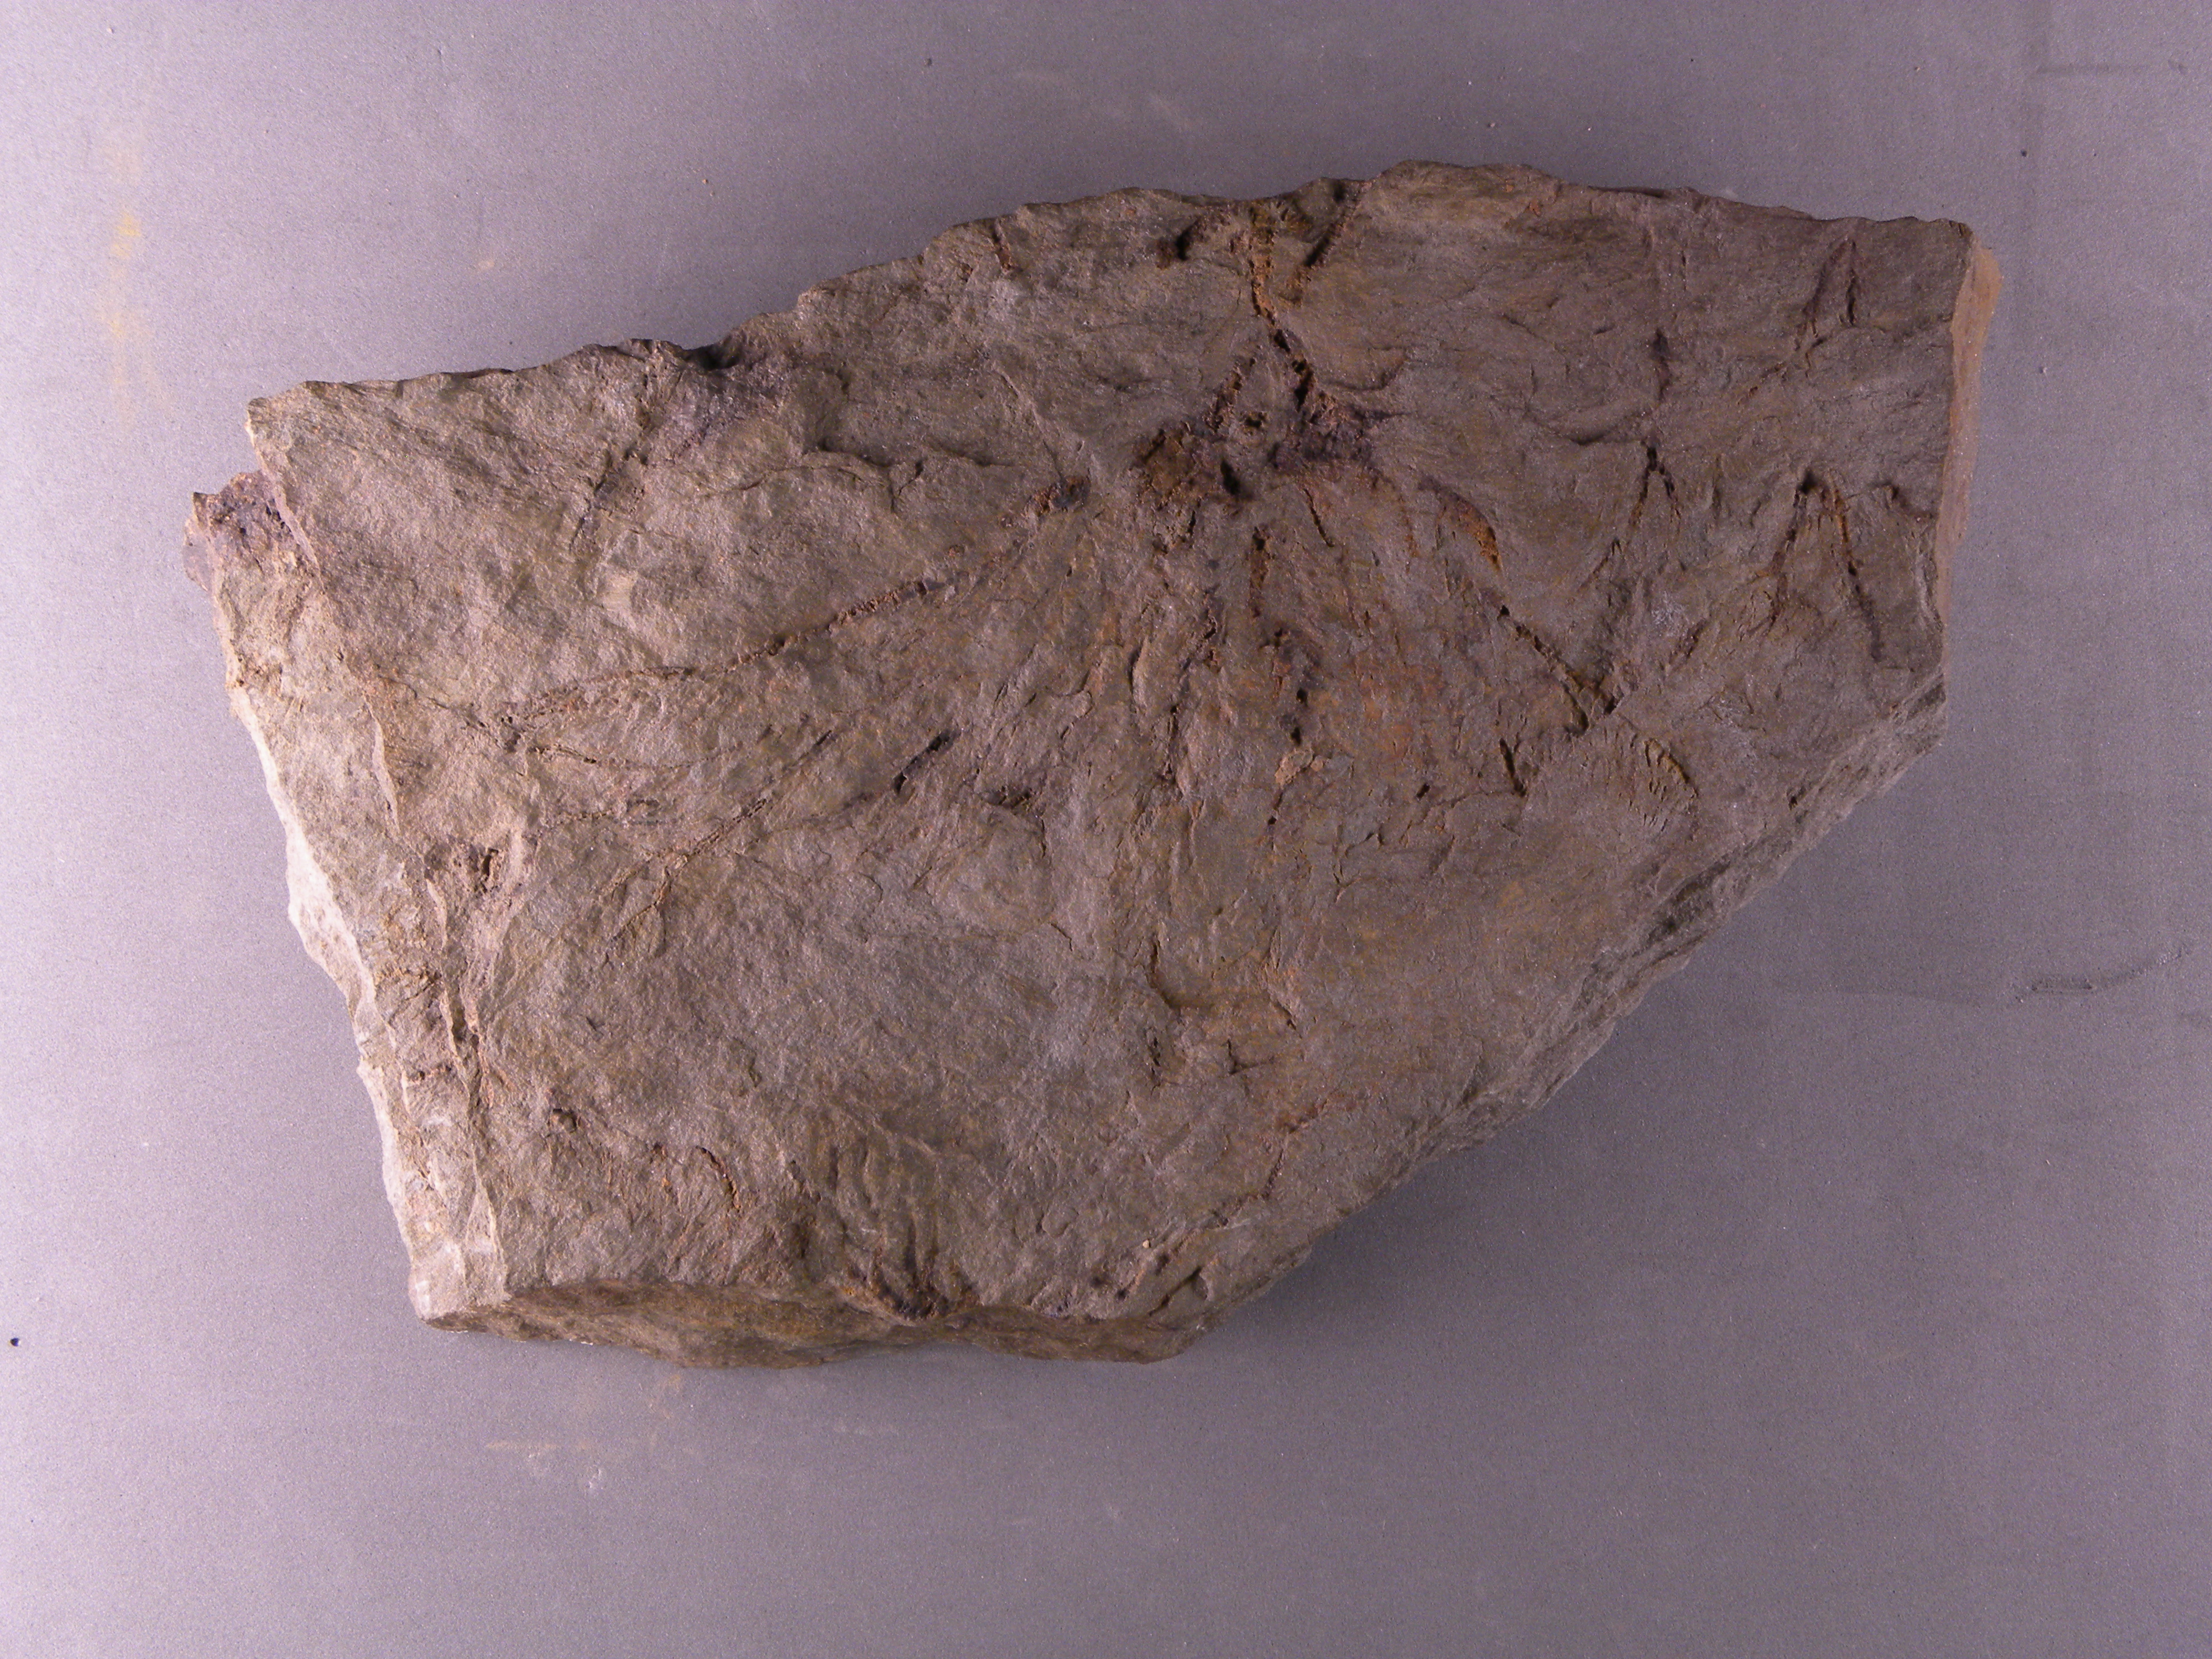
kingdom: Animalia
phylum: Echinodermata
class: Crinoidea
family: Rutkowskicrinidae
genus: Propoteriocrinus
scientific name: Propoteriocrinus
